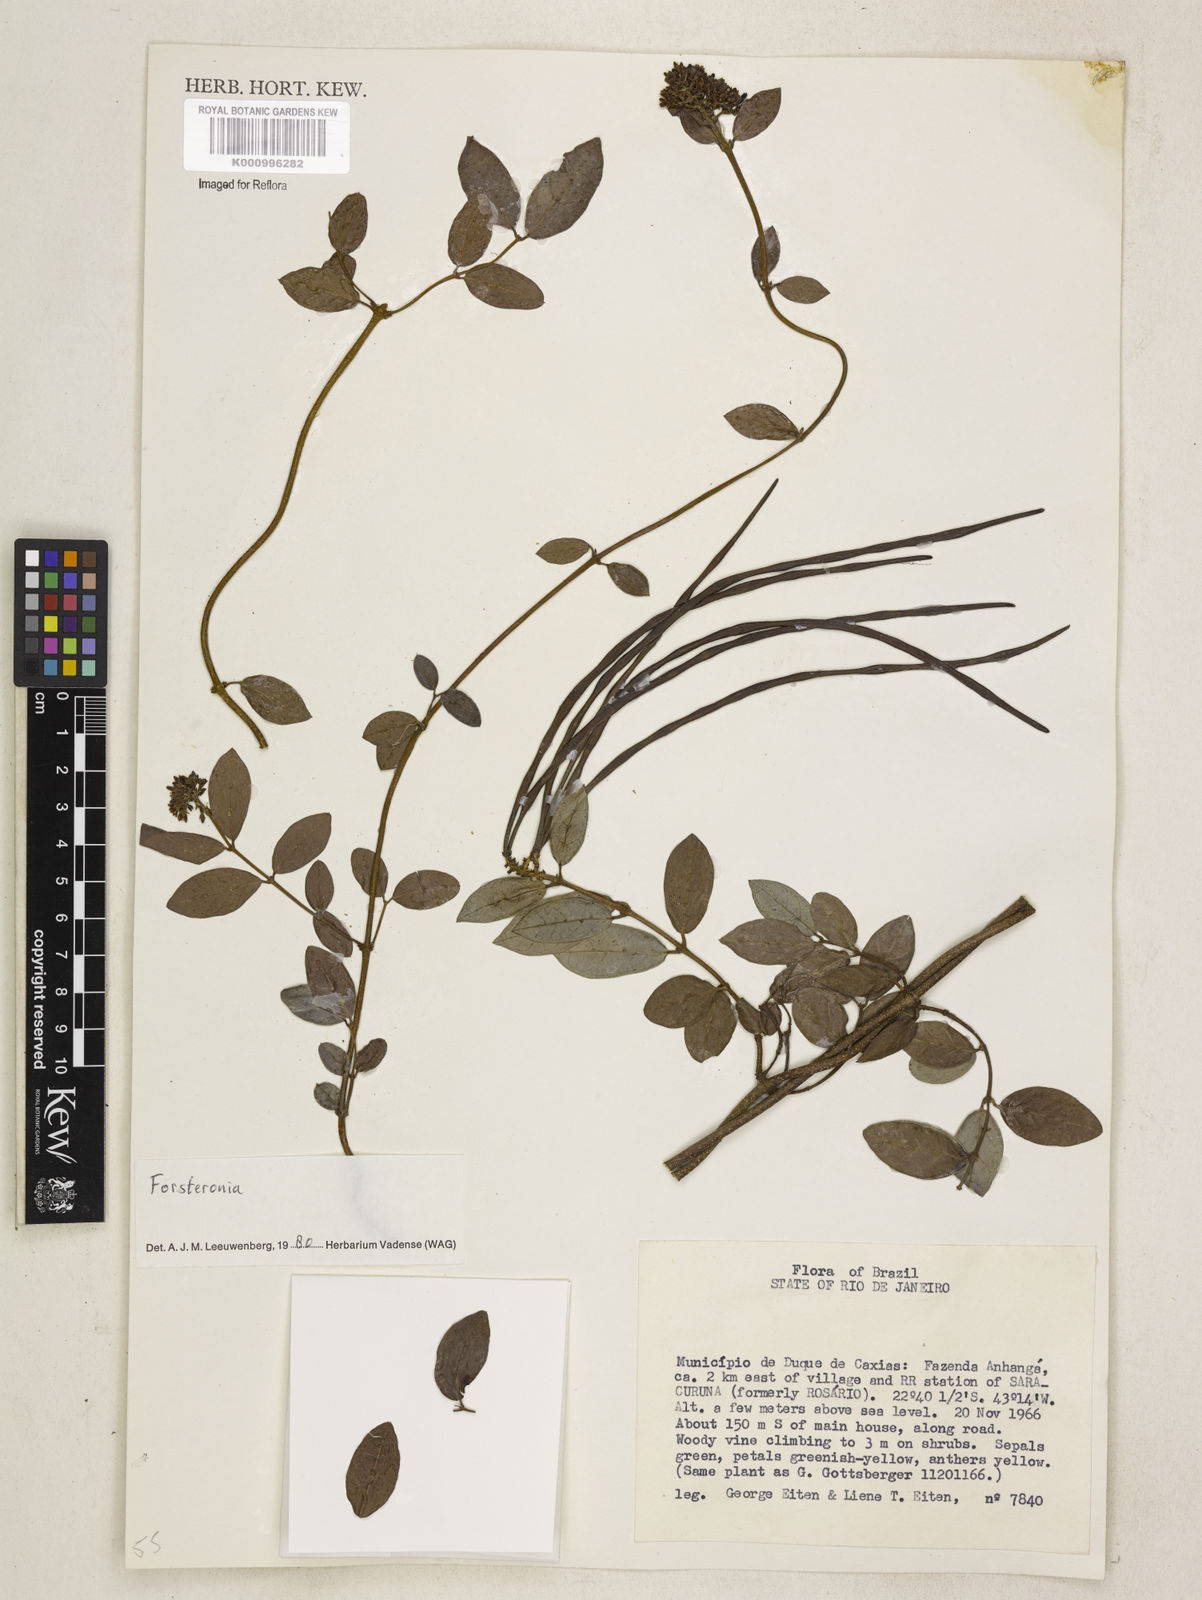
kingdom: Plantae
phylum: Tracheophyta
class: Magnoliopsida
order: Gentianales
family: Apocynaceae
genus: Forsteronia
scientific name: Forsteronia
